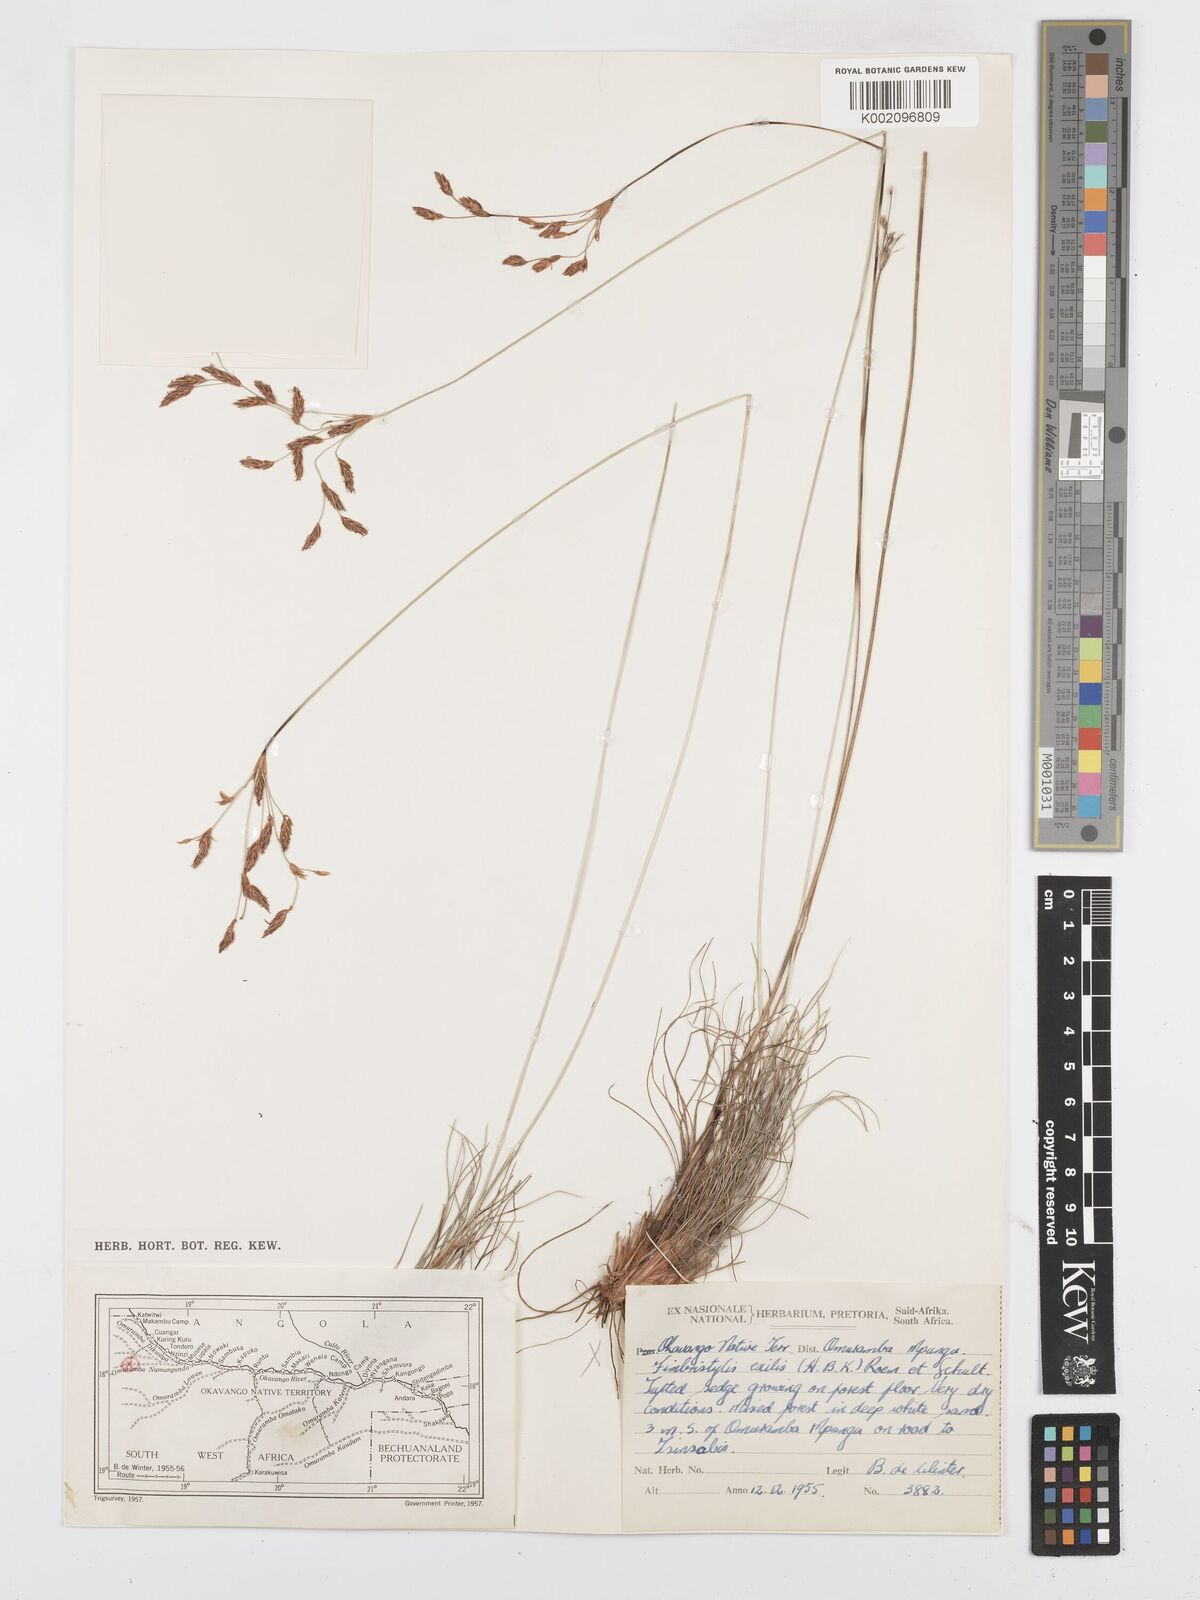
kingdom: Plantae
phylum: Tracheophyta
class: Liliopsida
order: Poales
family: Cyperaceae
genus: Bulbostylis
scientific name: Bulbostylis
